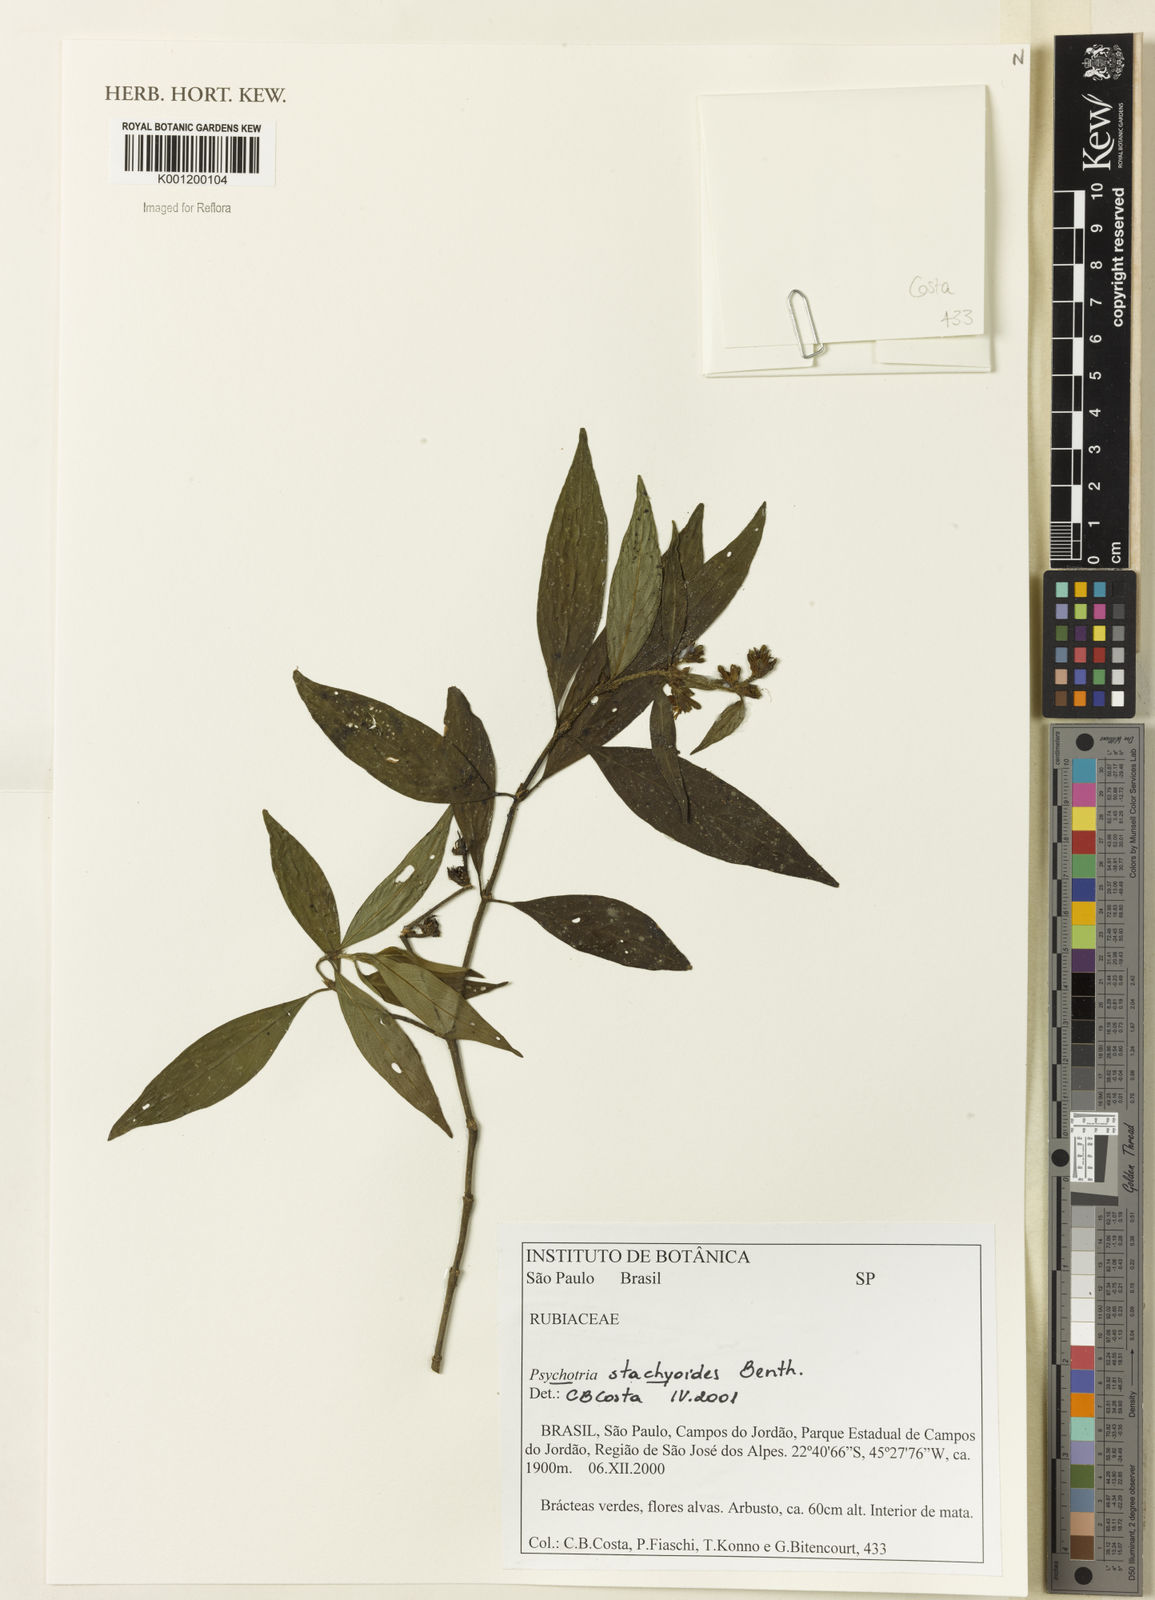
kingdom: Plantae
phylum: Tracheophyta
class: Magnoliopsida
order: Gentianales
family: Rubiaceae
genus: Psychotria
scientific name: Psychotria stachyoides
